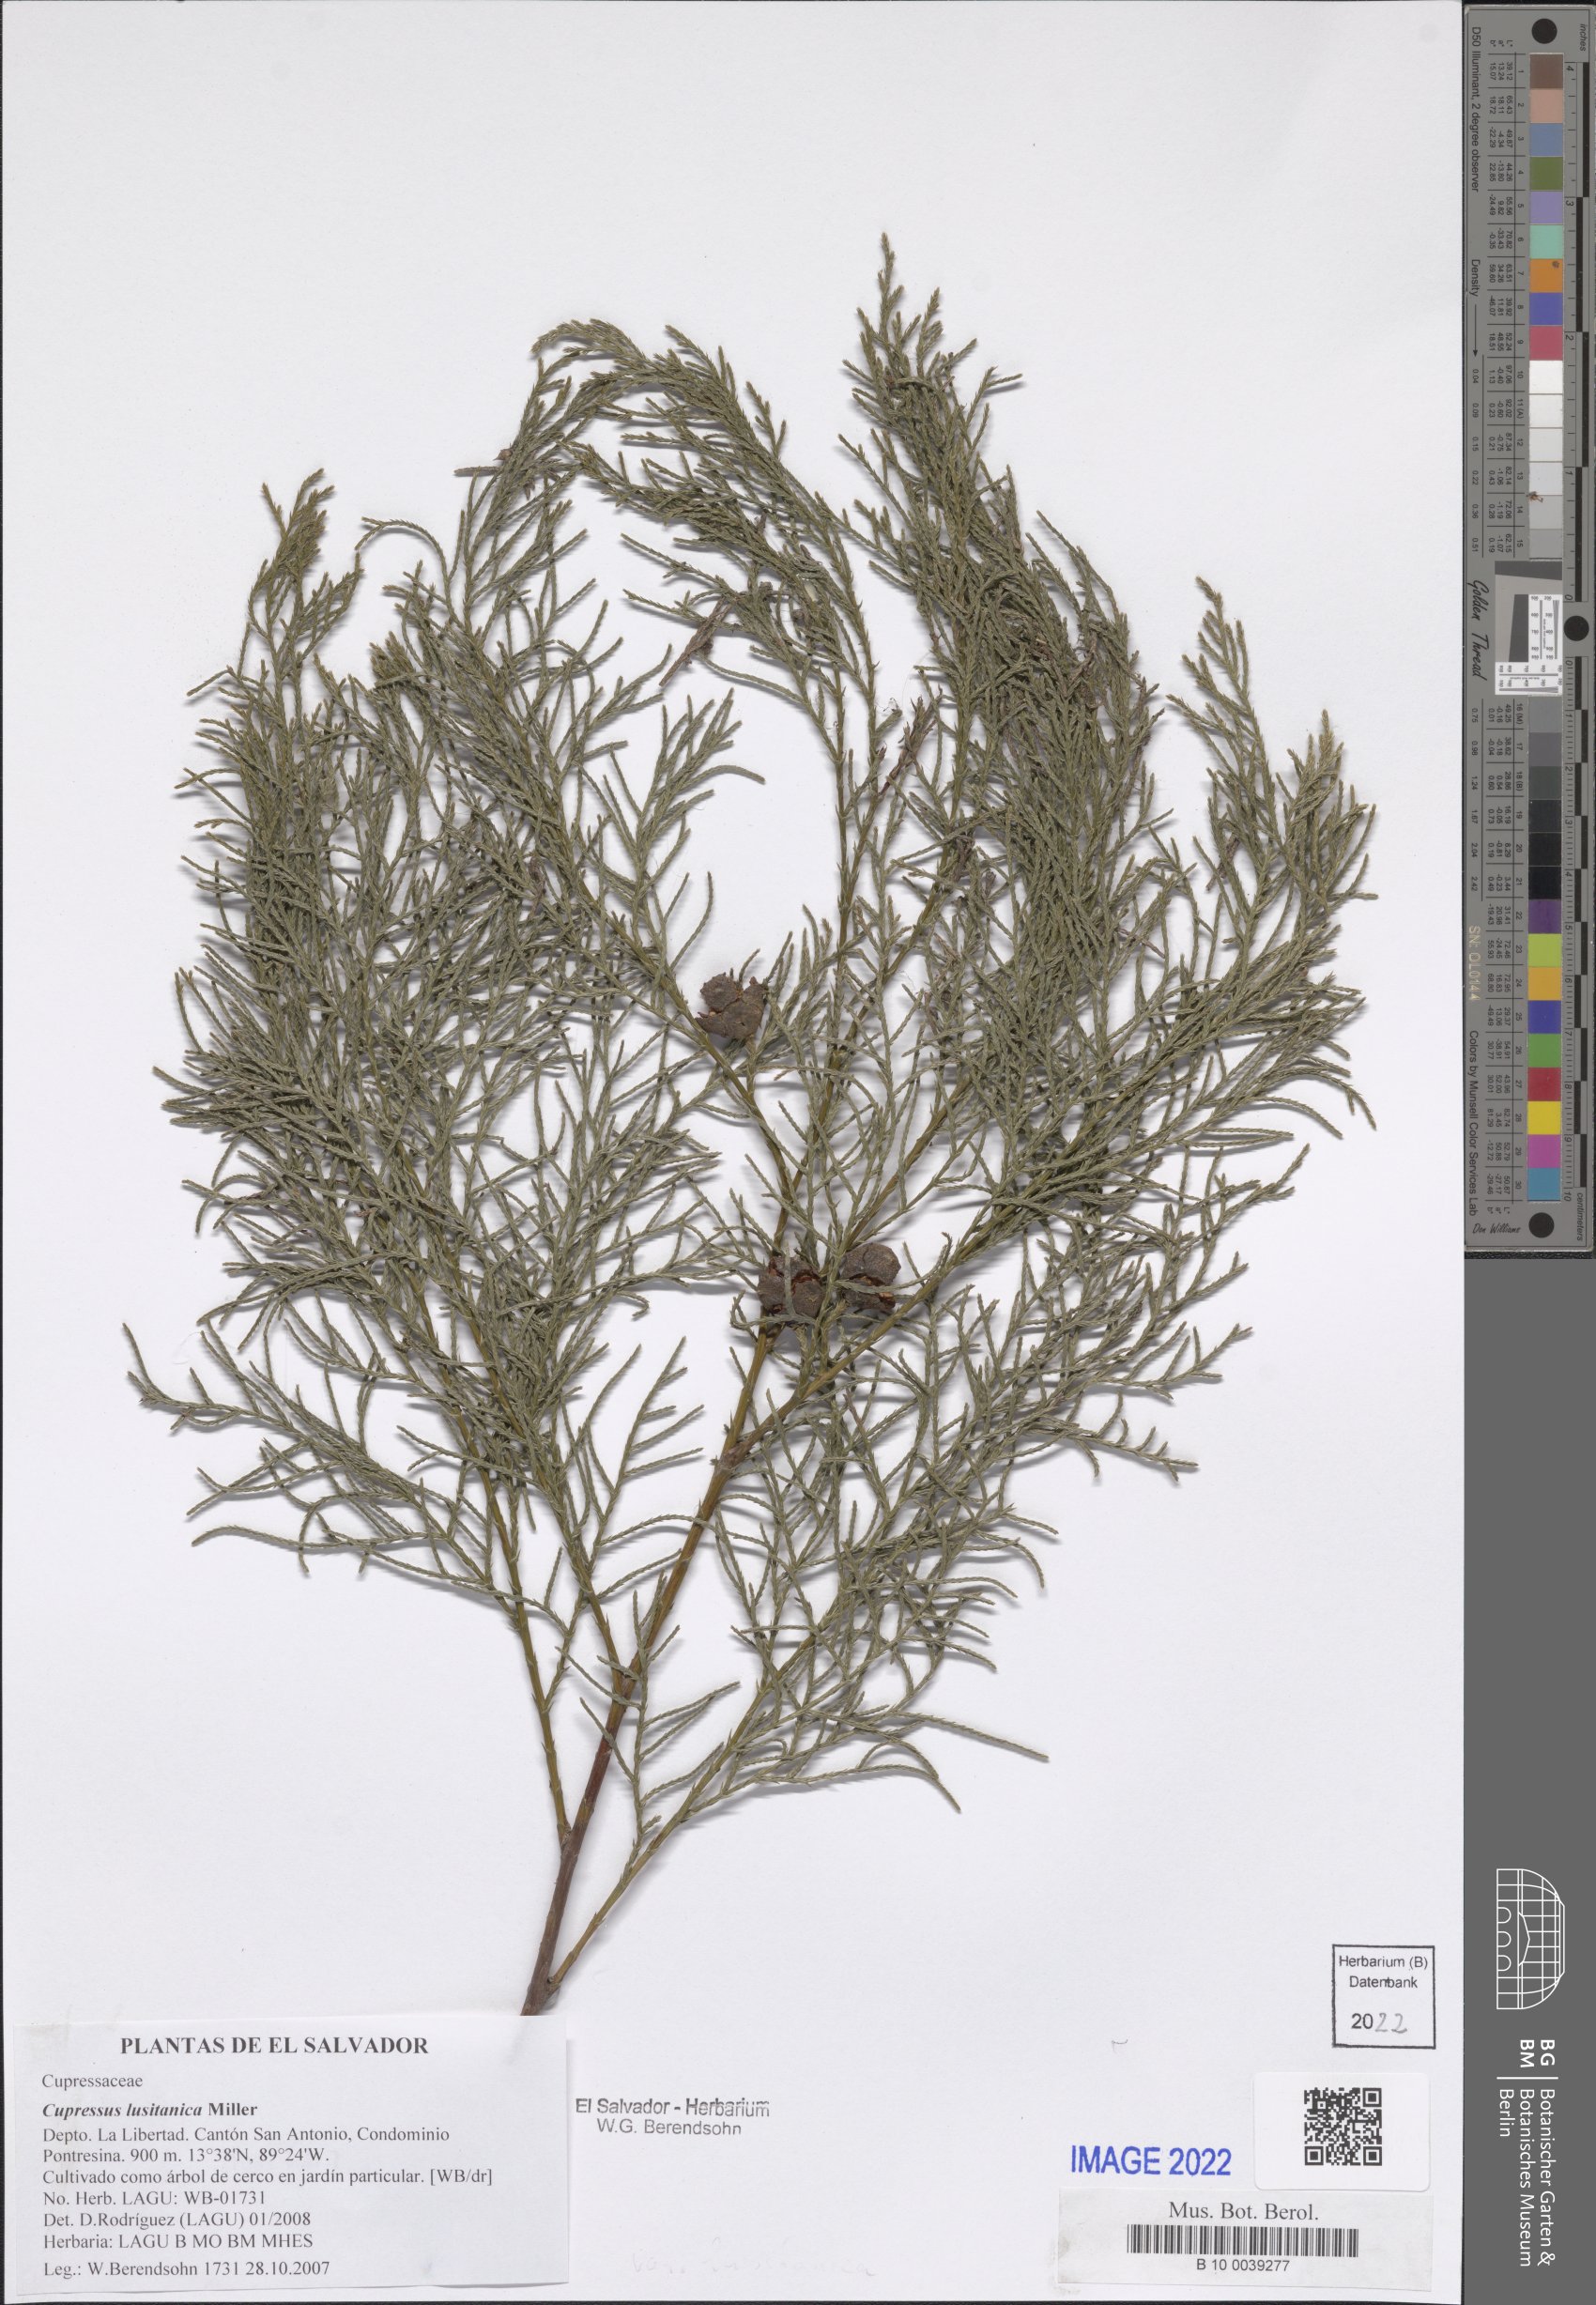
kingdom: Plantae
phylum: Tracheophyta
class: Pinopsida
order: Pinales
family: Cupressaceae
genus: Cupressus
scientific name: Cupressus lusitanica
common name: Mexican cypress
